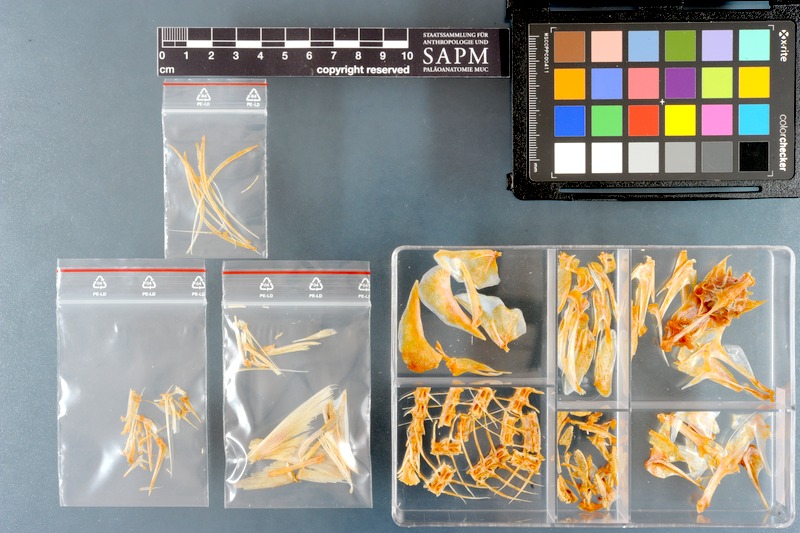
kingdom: Animalia
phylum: Chordata
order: Perciformes
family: Scombridae
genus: Rastrelliger
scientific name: Rastrelliger kanagurta
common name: Indian mackerel
